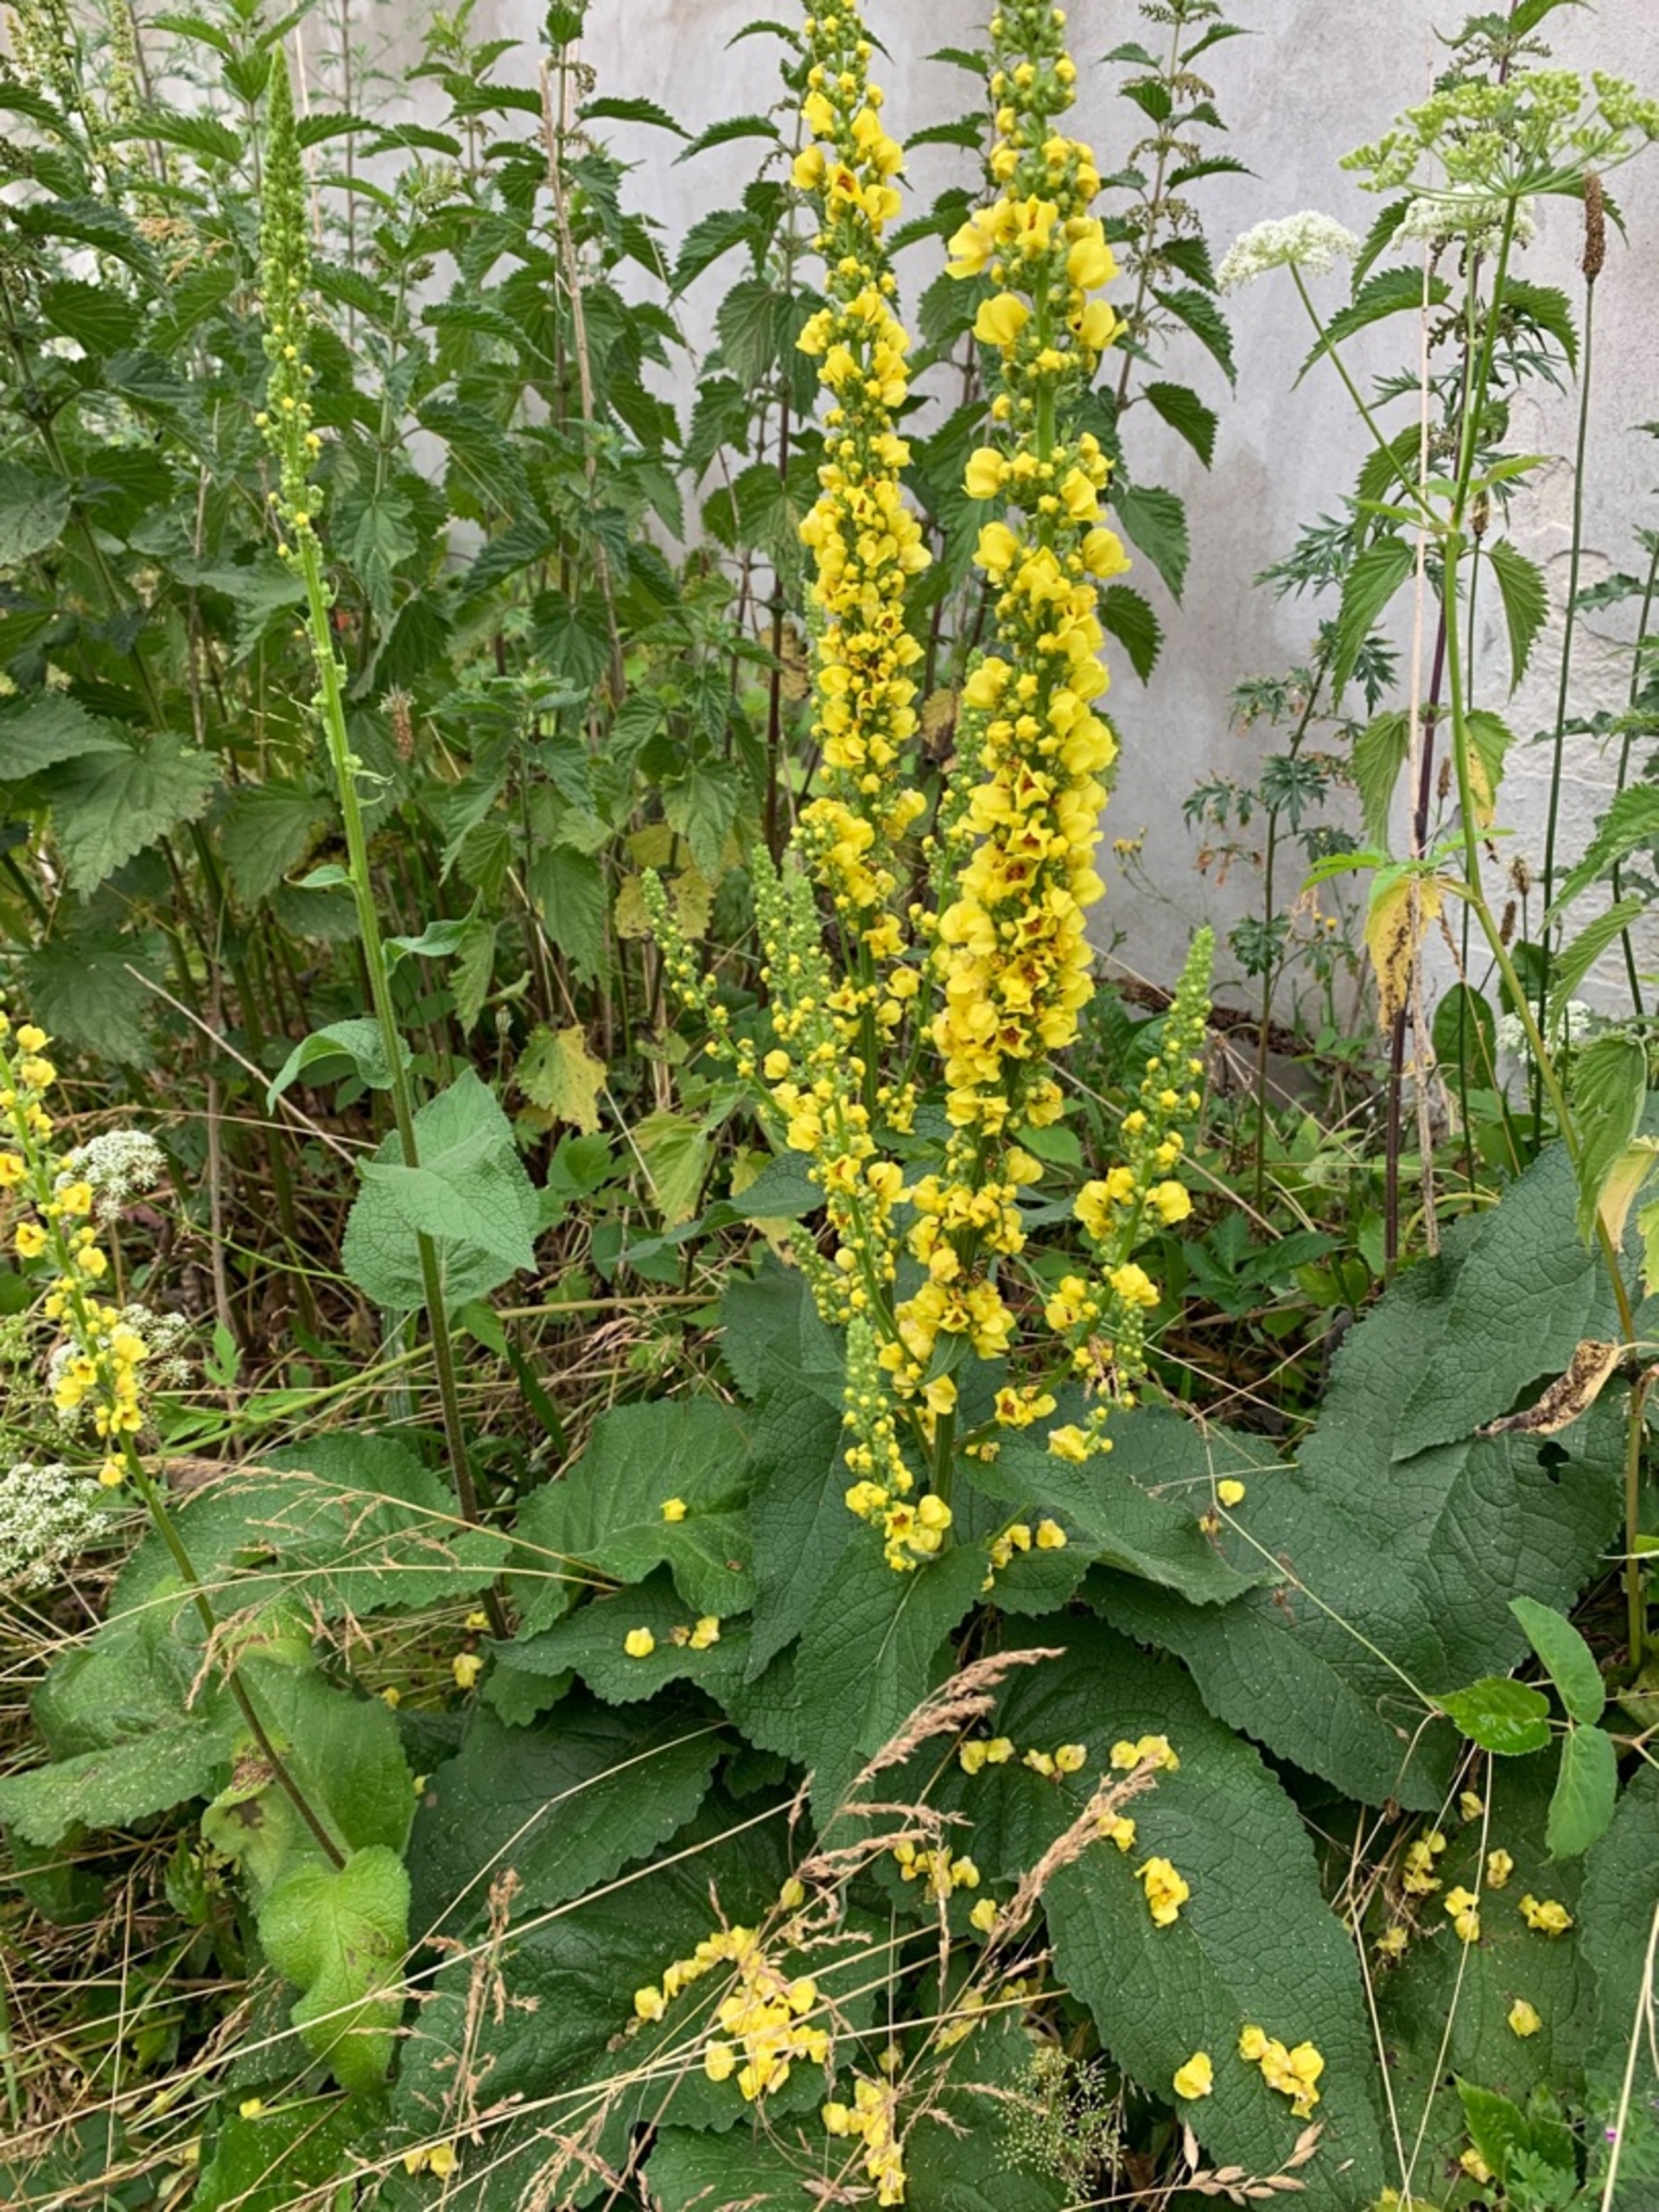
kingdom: Plantae
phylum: Tracheophyta
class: Magnoliopsida
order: Lamiales
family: Scrophulariaceae
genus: Verbascum
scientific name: Verbascum nigrum
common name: Mørk kongelys
